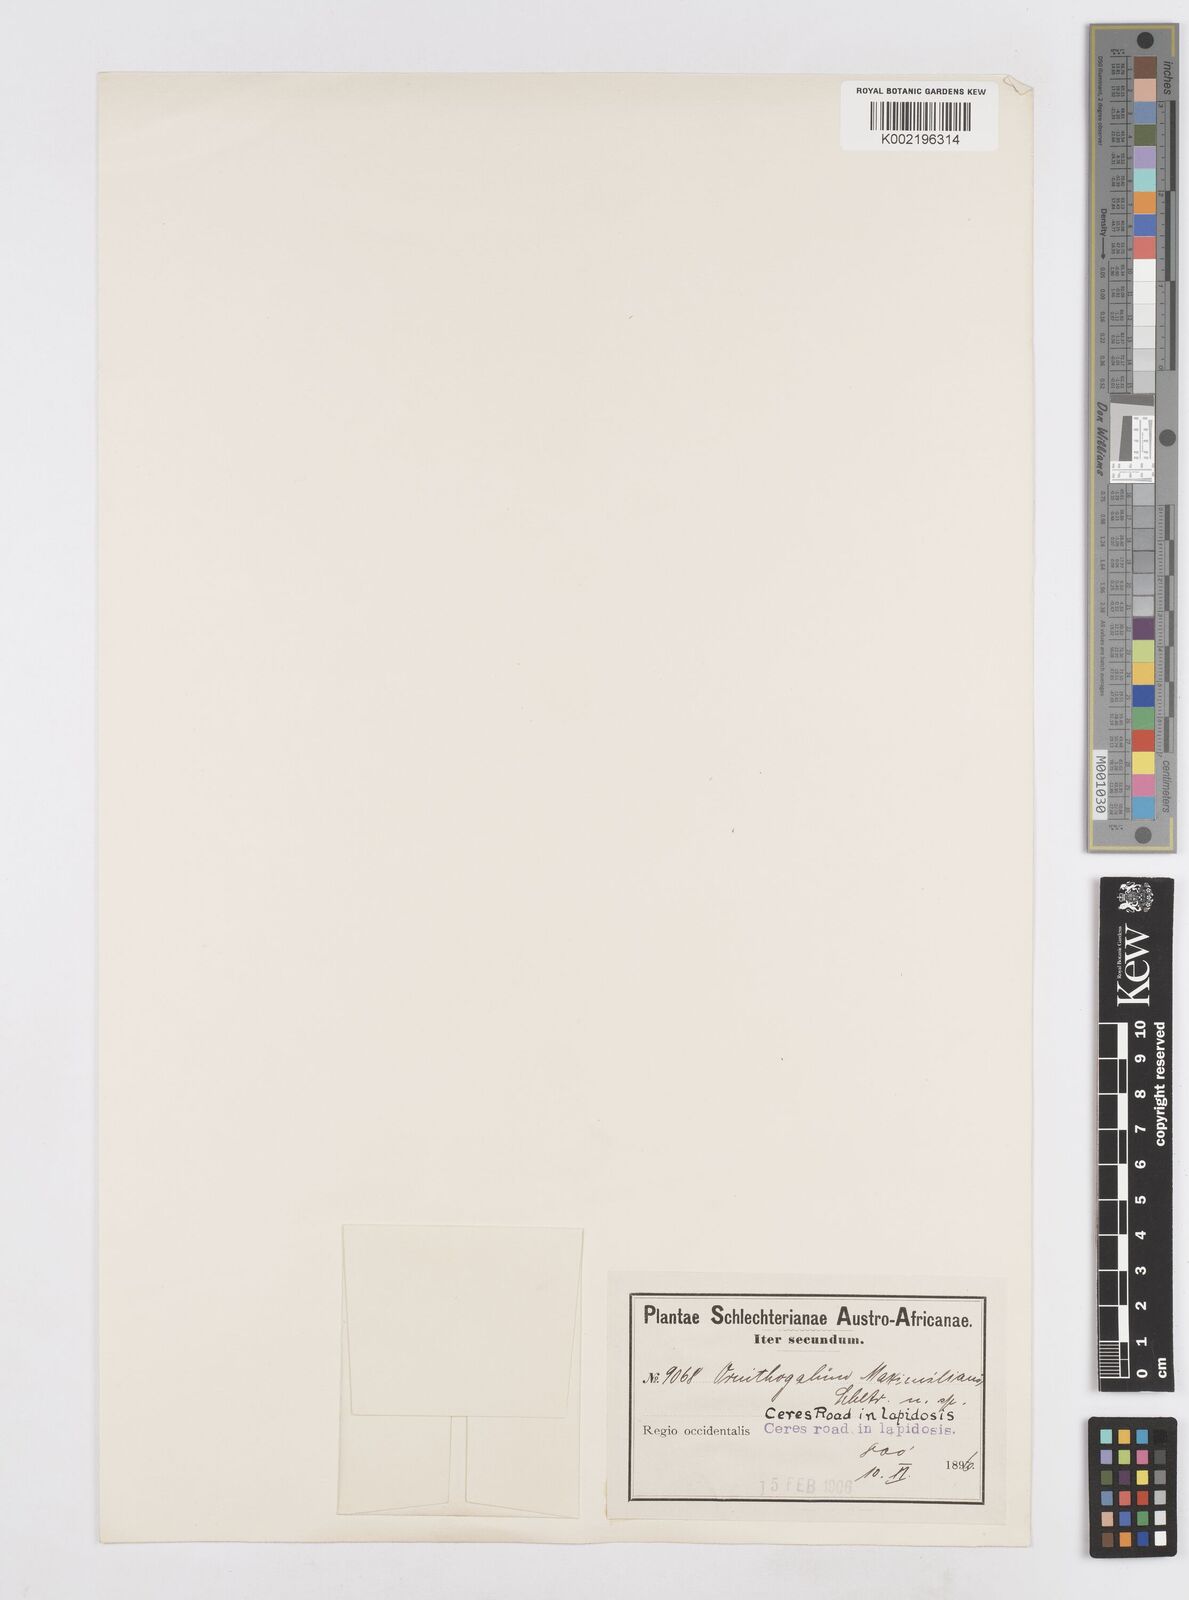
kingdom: Plantae
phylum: Tracheophyta
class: Liliopsida
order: Asparagales
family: Asparagaceae
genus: Ornithogalum
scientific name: Ornithogalum nanodes
